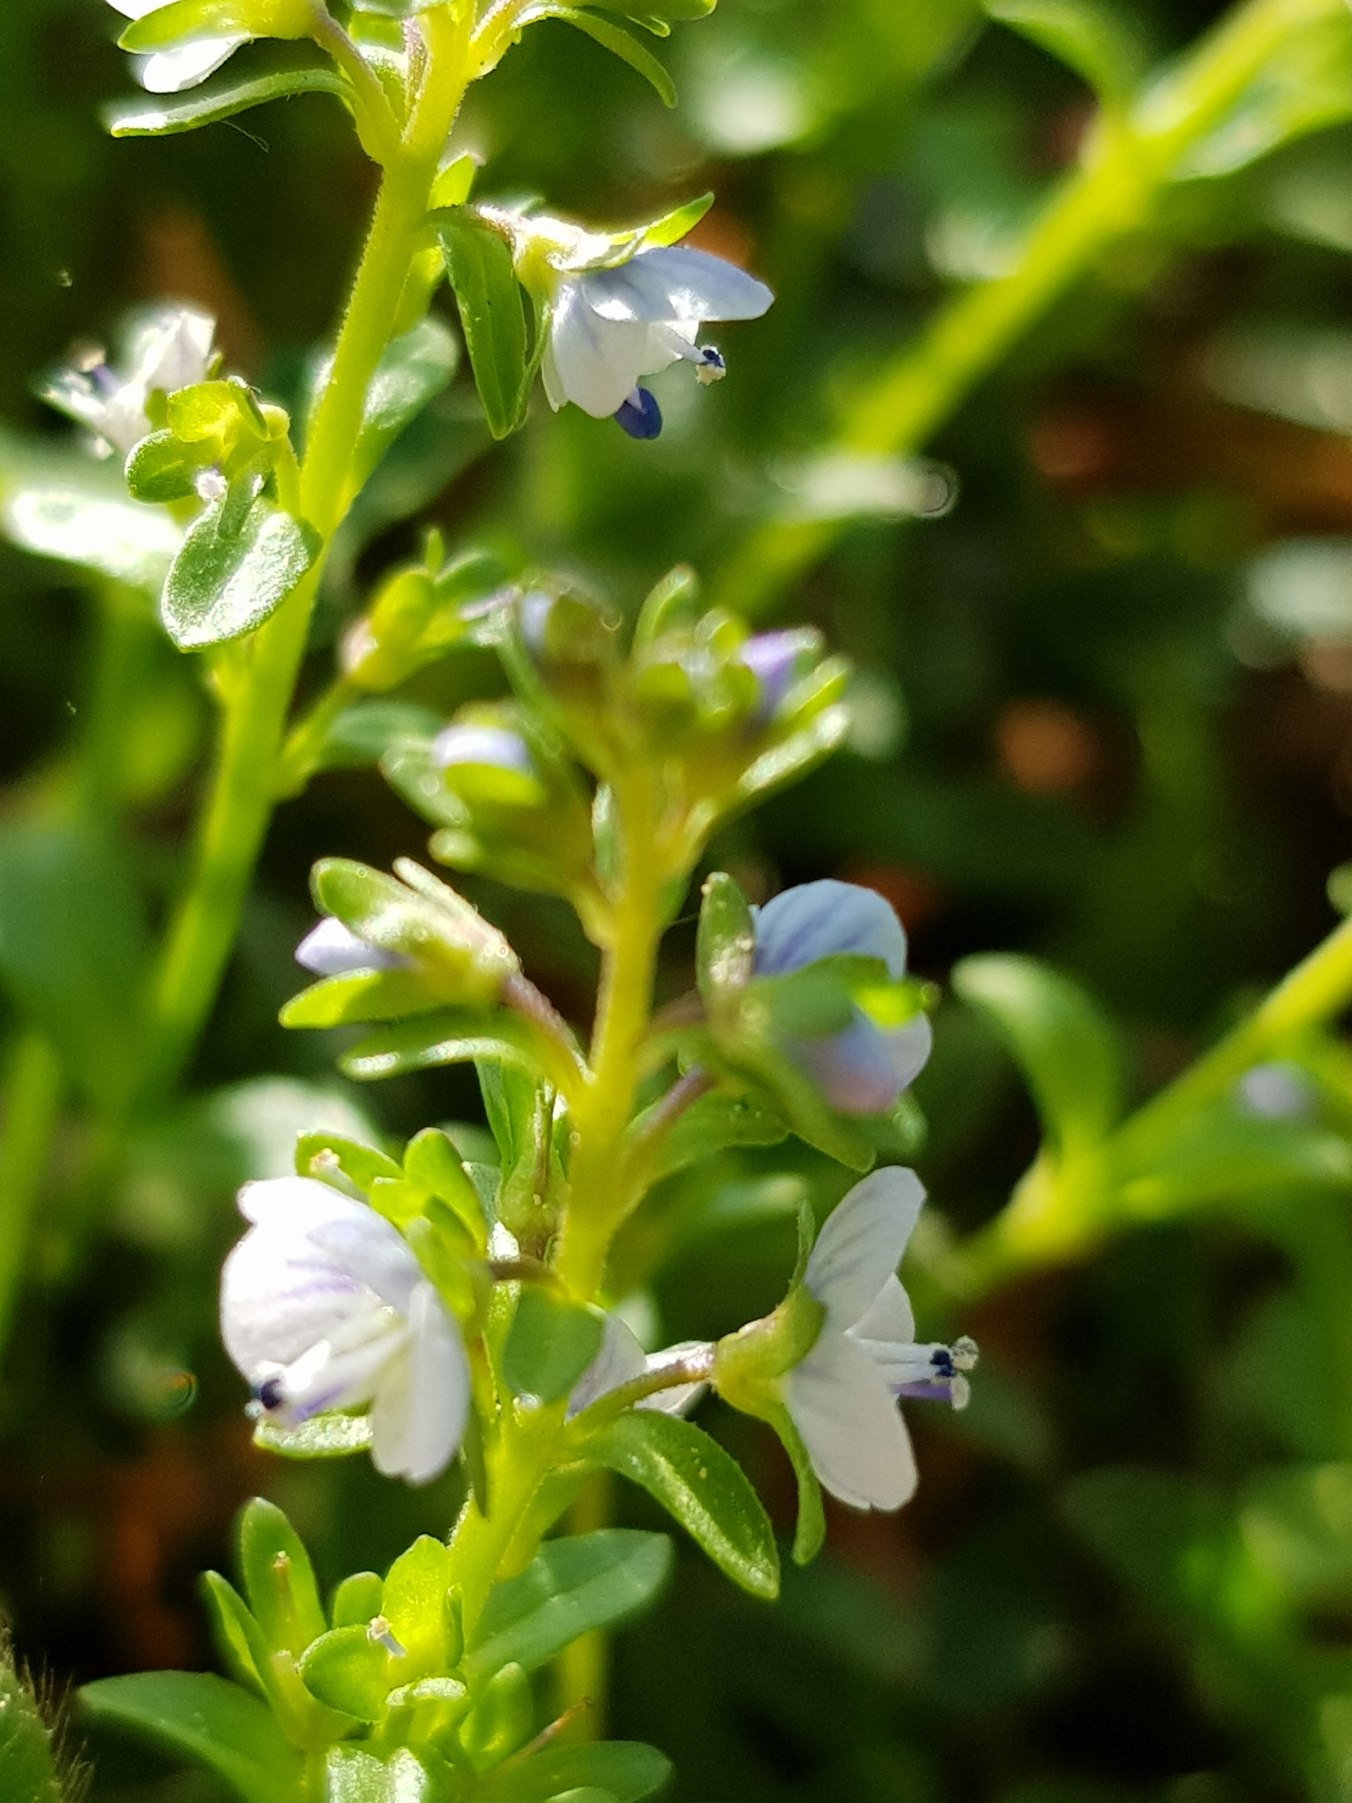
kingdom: Plantae
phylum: Tracheophyta
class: Magnoliopsida
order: Lamiales
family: Plantaginaceae
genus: Veronica
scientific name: Veronica serpyllifolia
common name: Glat ærenpris
